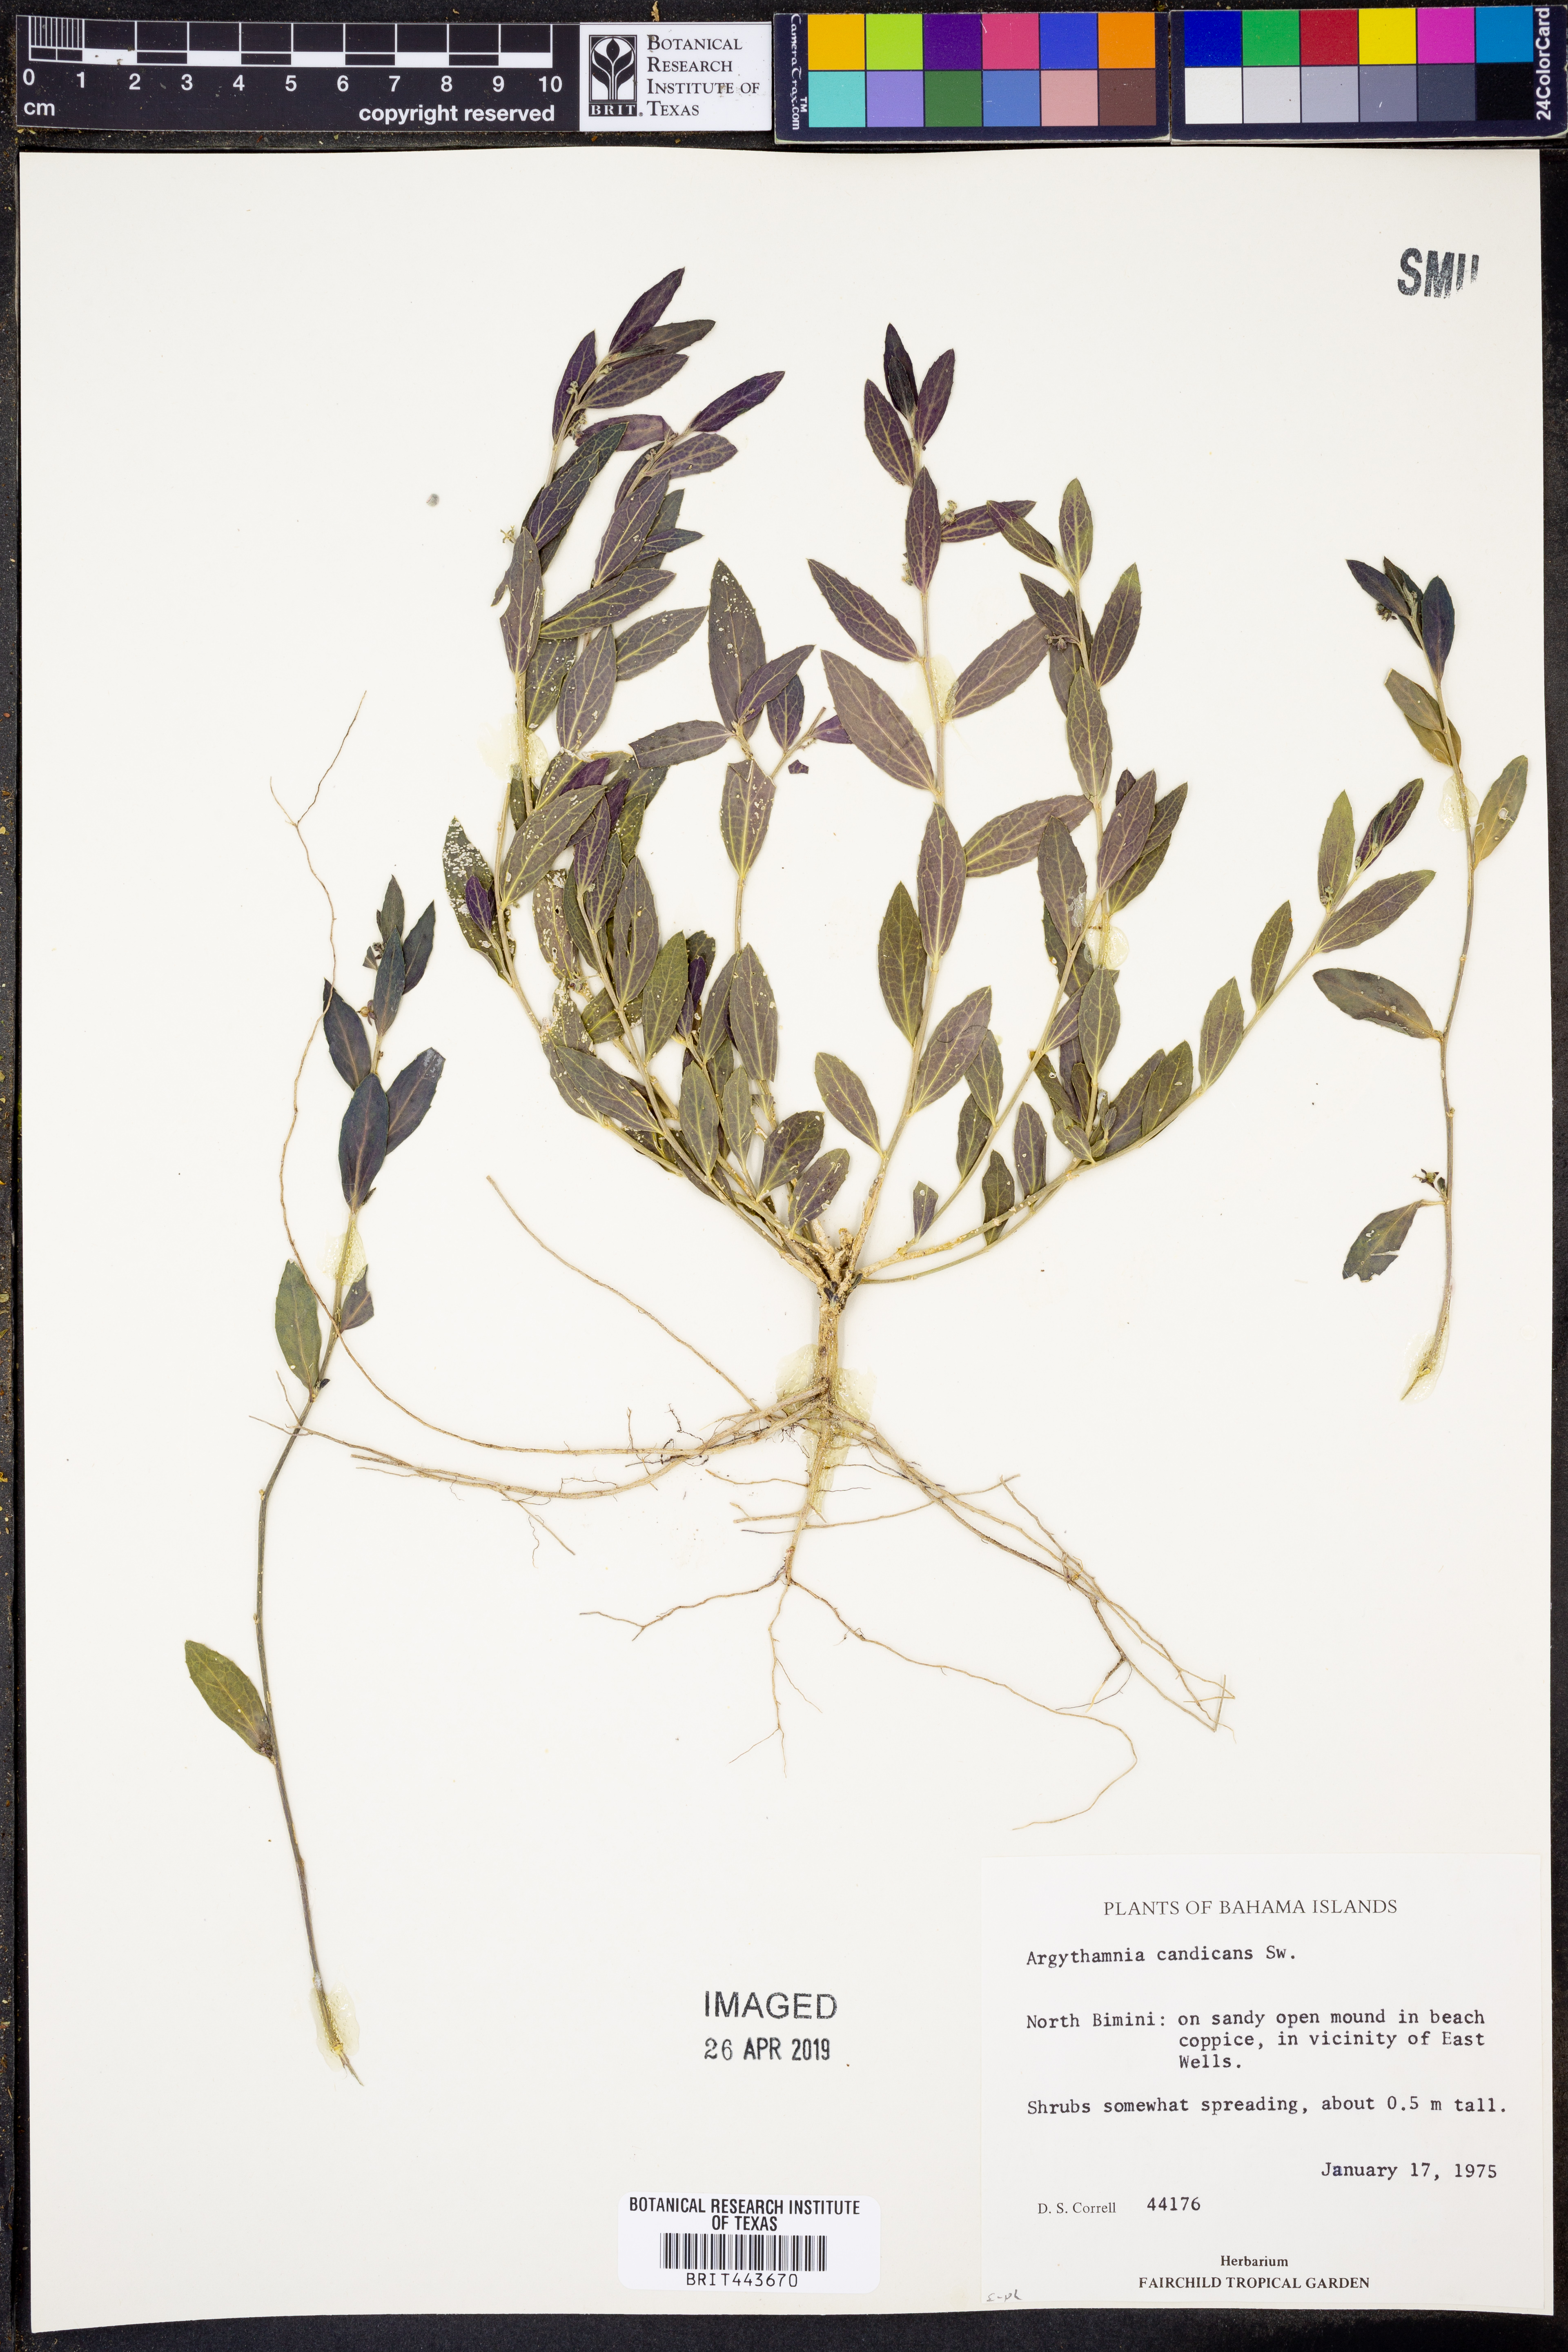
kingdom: Plantae
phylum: Tracheophyta
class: Magnoliopsida
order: Malpighiales
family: Euphorbiaceae
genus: Argythamnia
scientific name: Argythamnia candicans
